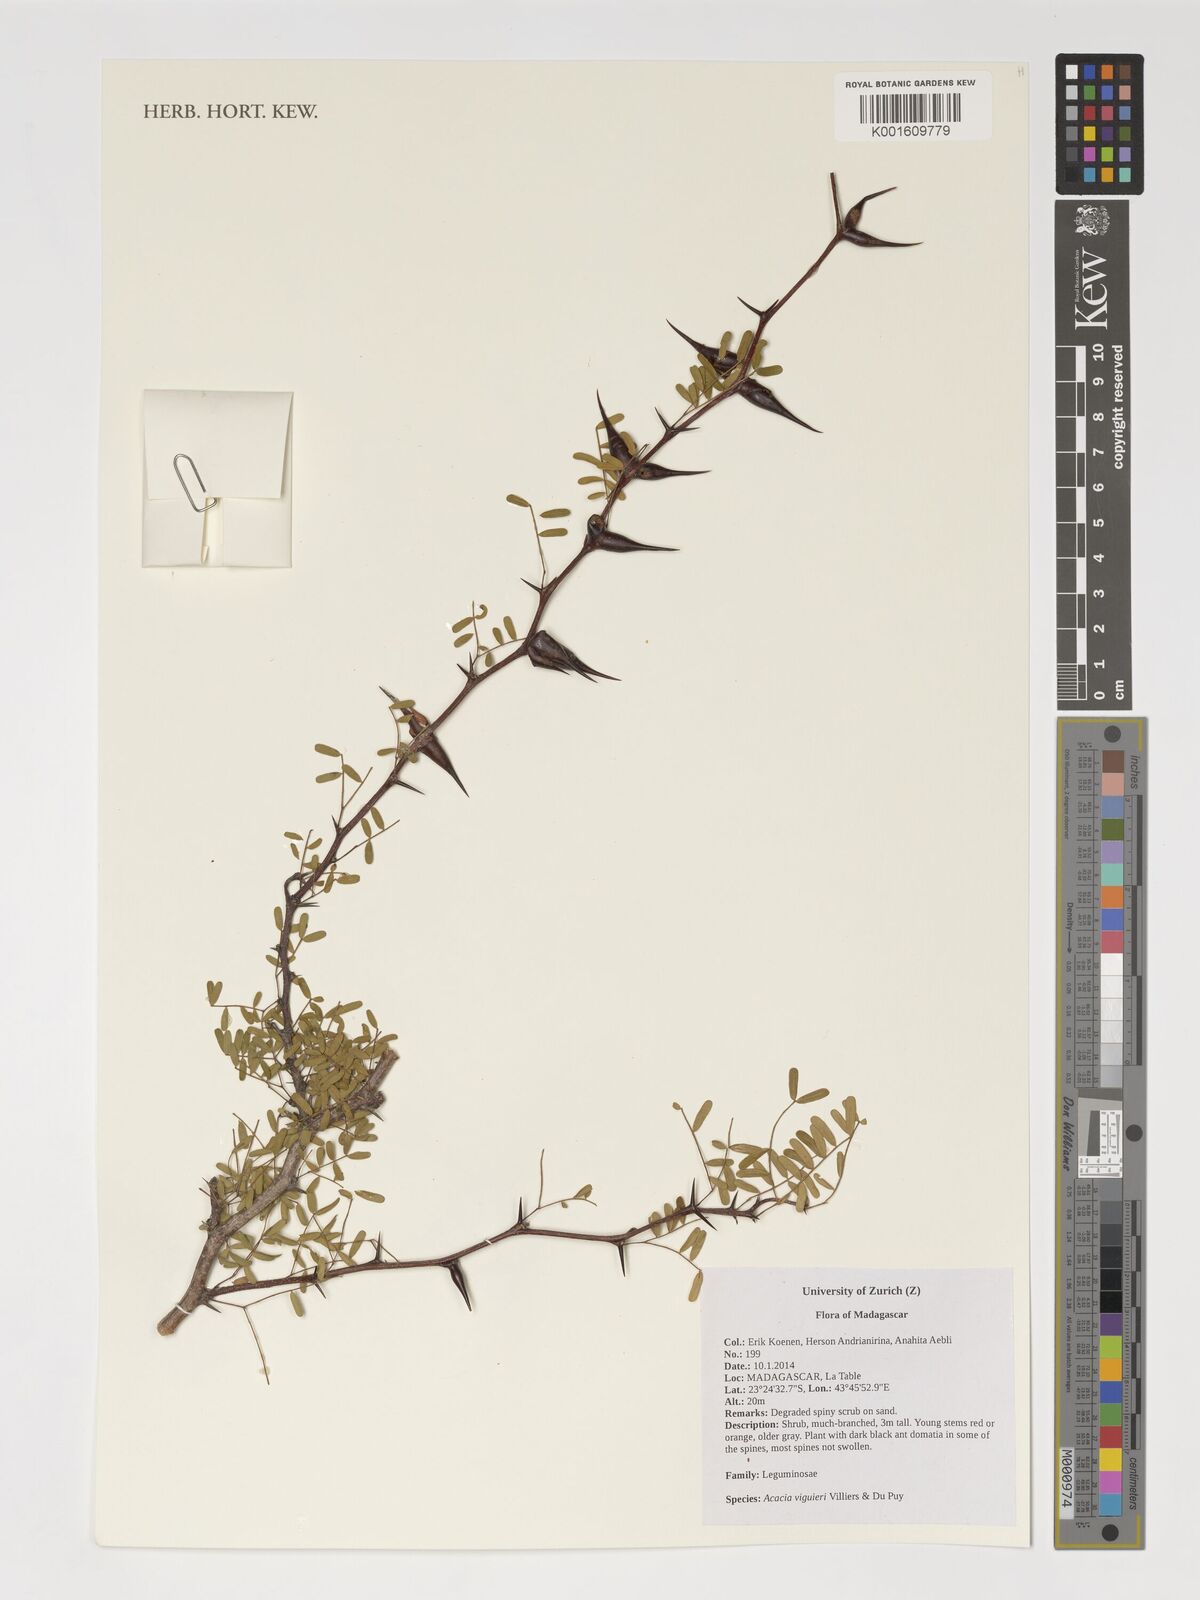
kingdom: Plantae
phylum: Tracheophyta
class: Magnoliopsida
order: Fabales
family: Fabaceae
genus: Vachellia
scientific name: Vachellia viguieri
